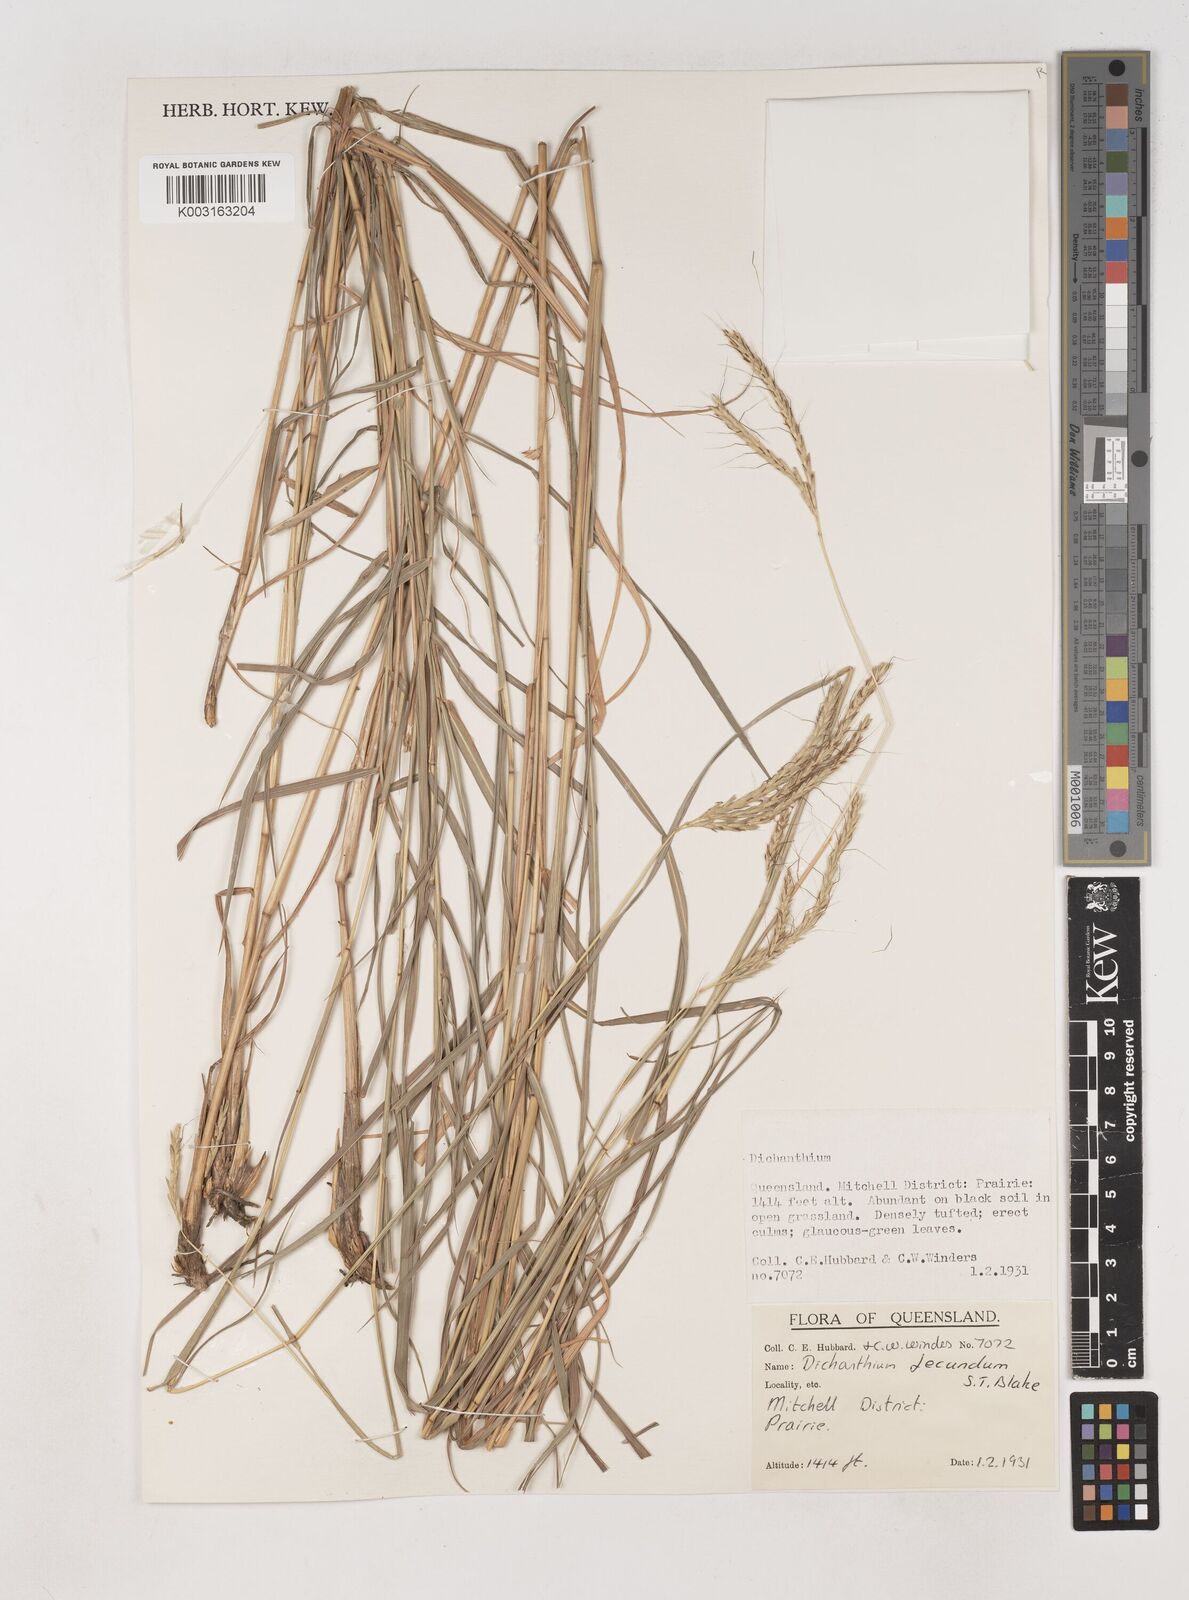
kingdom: Plantae
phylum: Tracheophyta
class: Liliopsida
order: Poales
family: Poaceae
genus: Dichanthium
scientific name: Dichanthium fecundum
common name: Bundle-bundle
